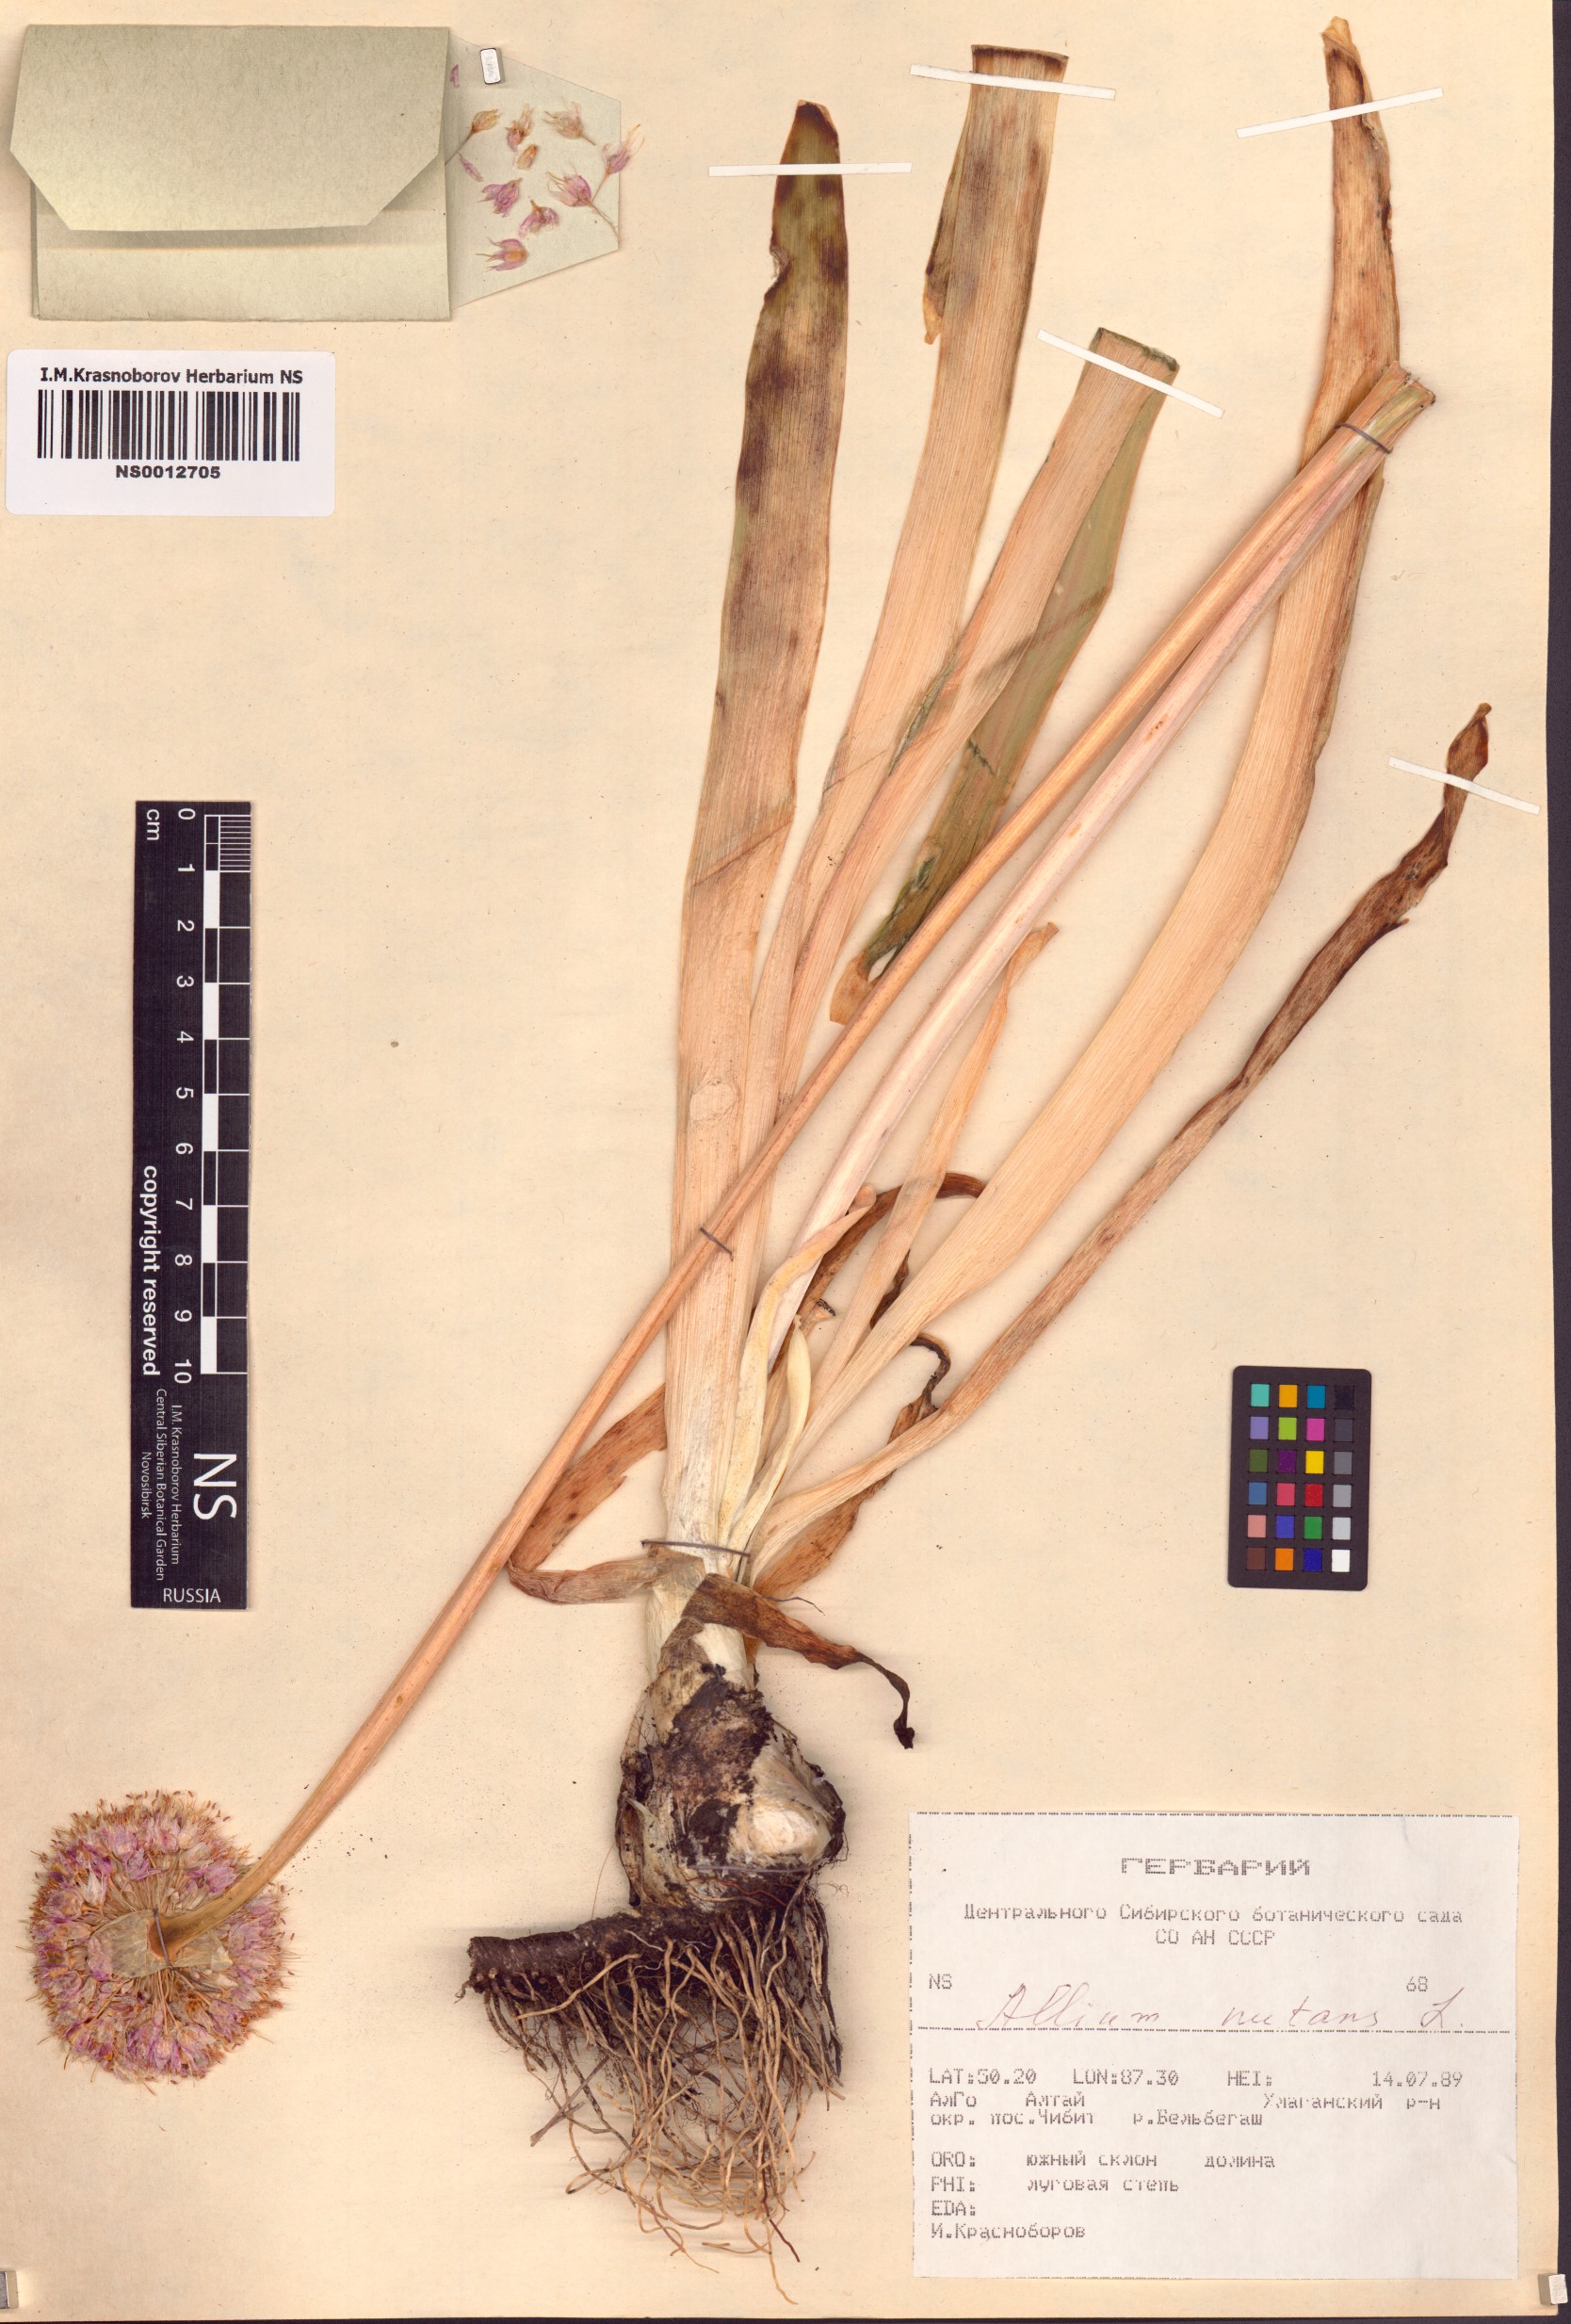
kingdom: Plantae
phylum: Tracheophyta
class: Liliopsida
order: Asparagales
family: Amaryllidaceae
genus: Allium
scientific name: Allium nutans
